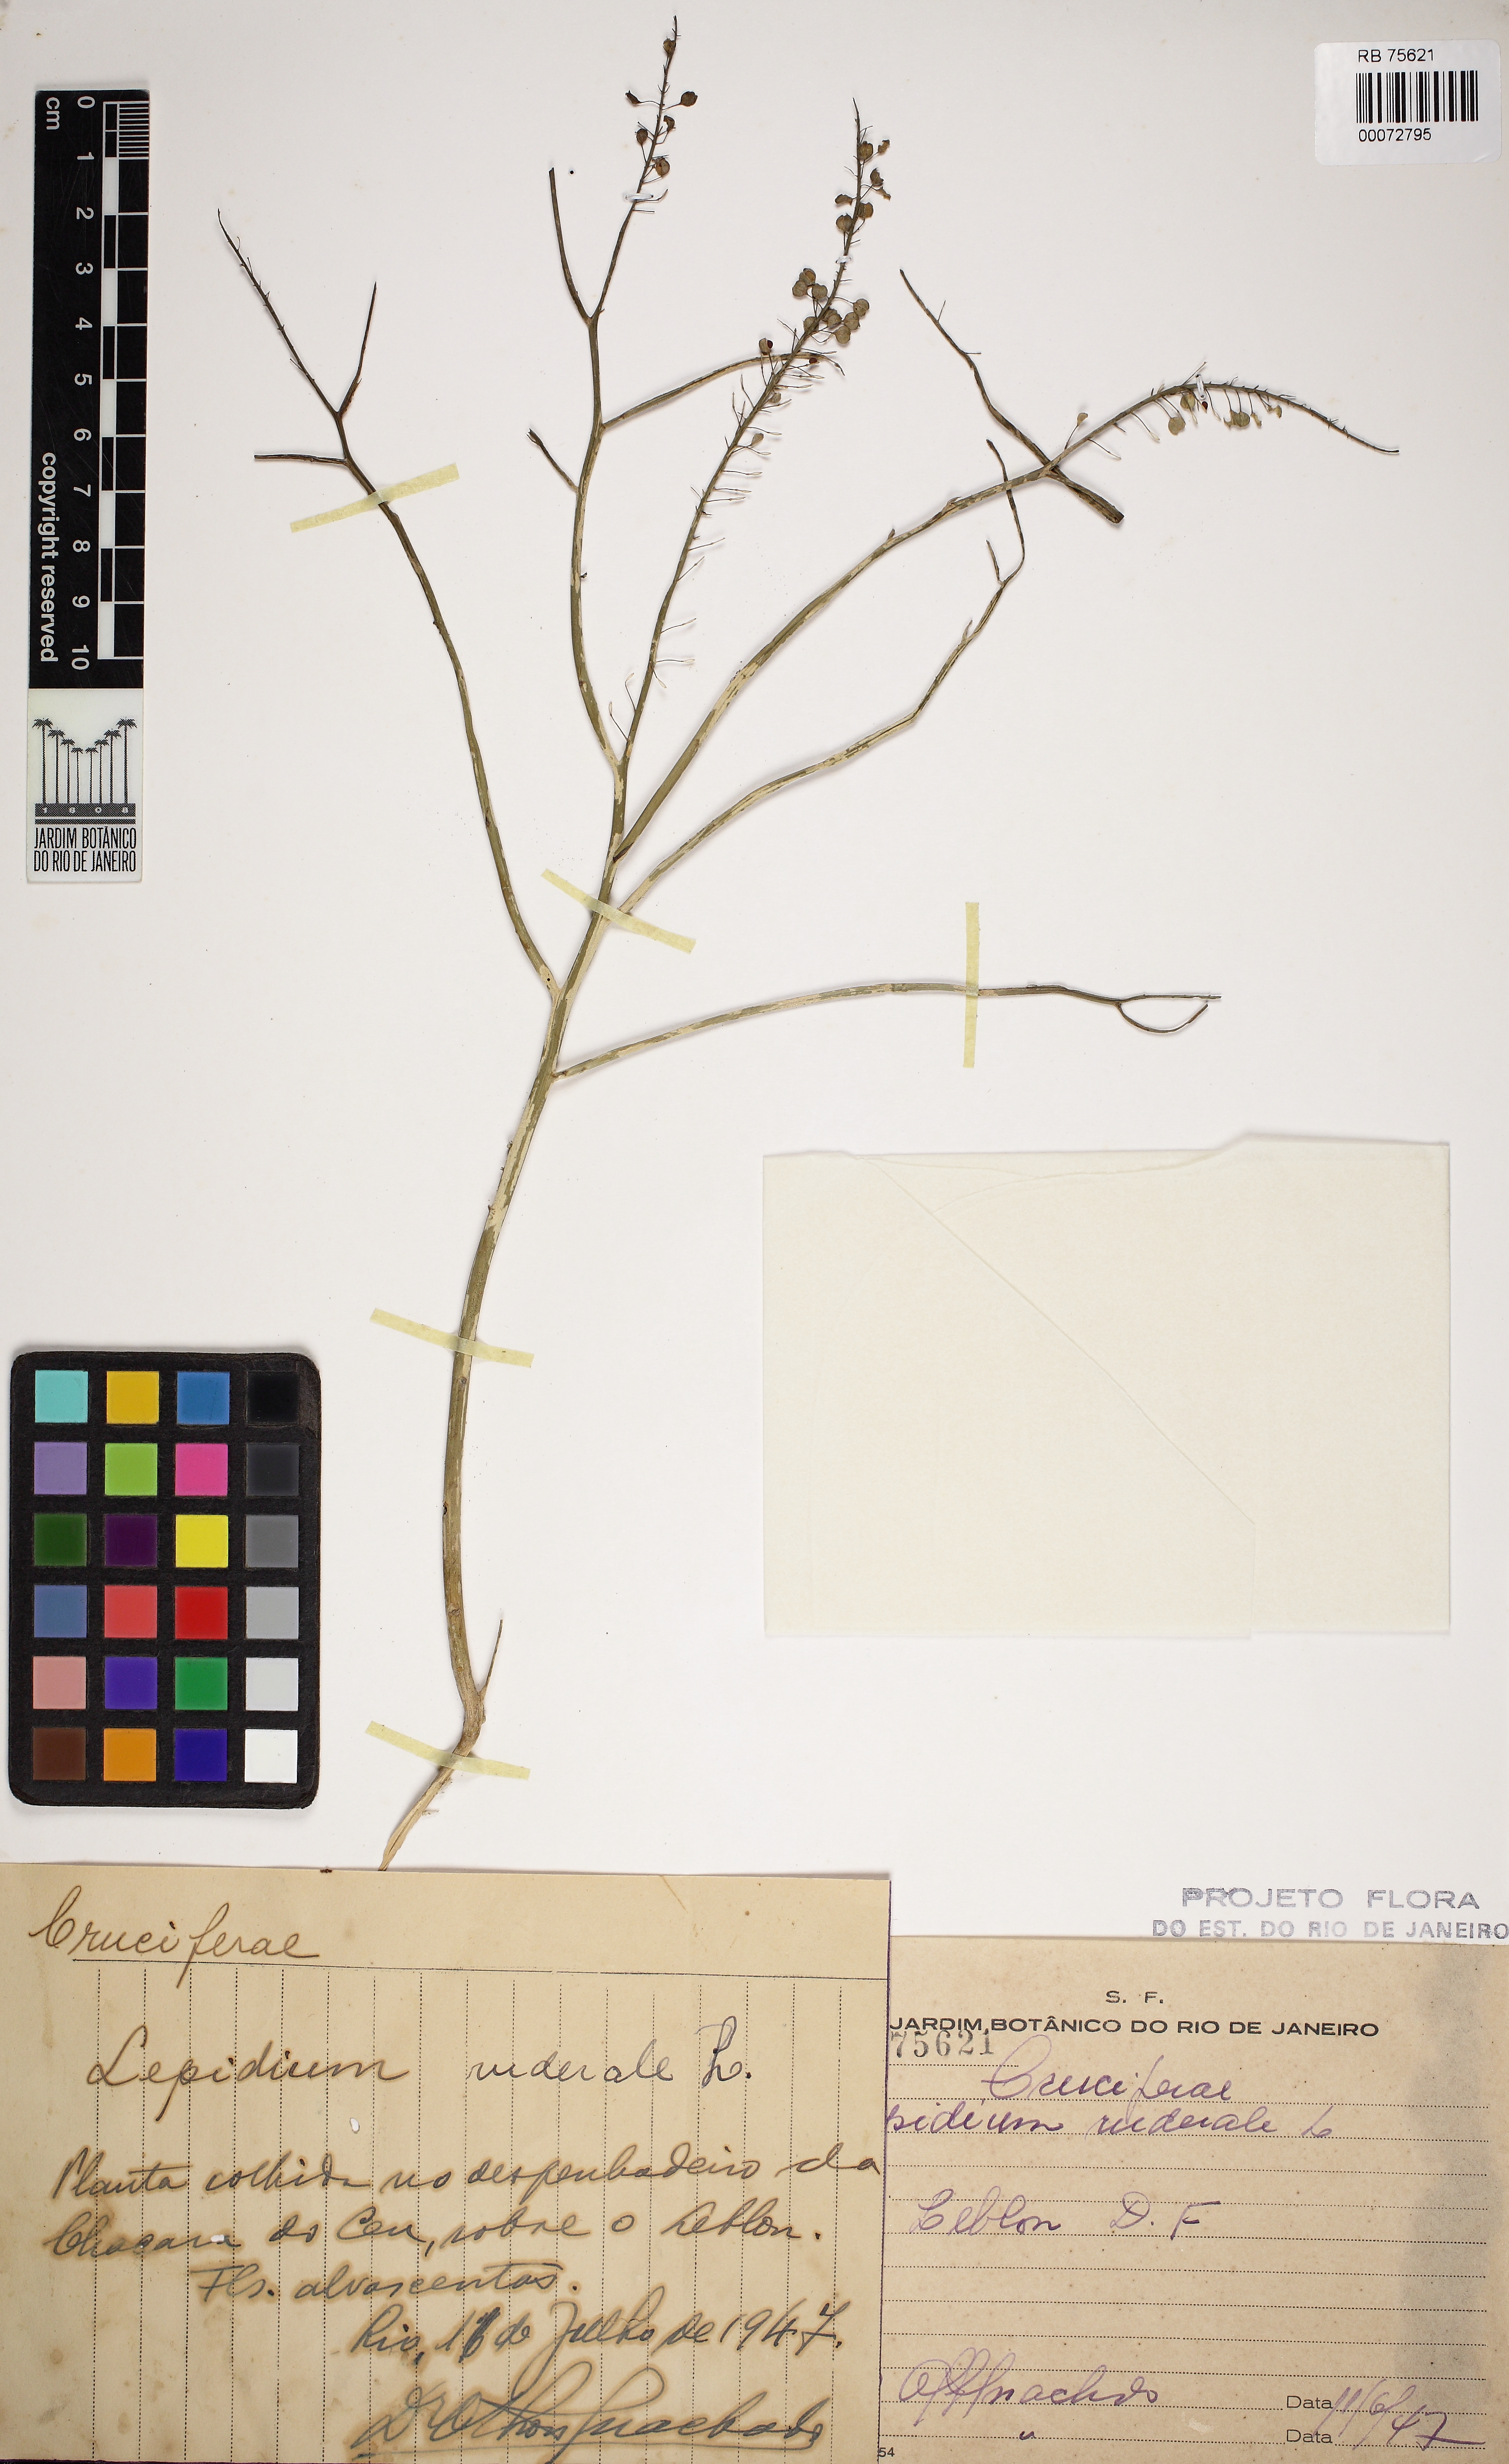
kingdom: Plantae
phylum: Tracheophyta
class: Magnoliopsida
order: Brassicales
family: Brassicaceae
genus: Lepidium
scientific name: Lepidium ruderale
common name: Narrow-leaved pepperwort
